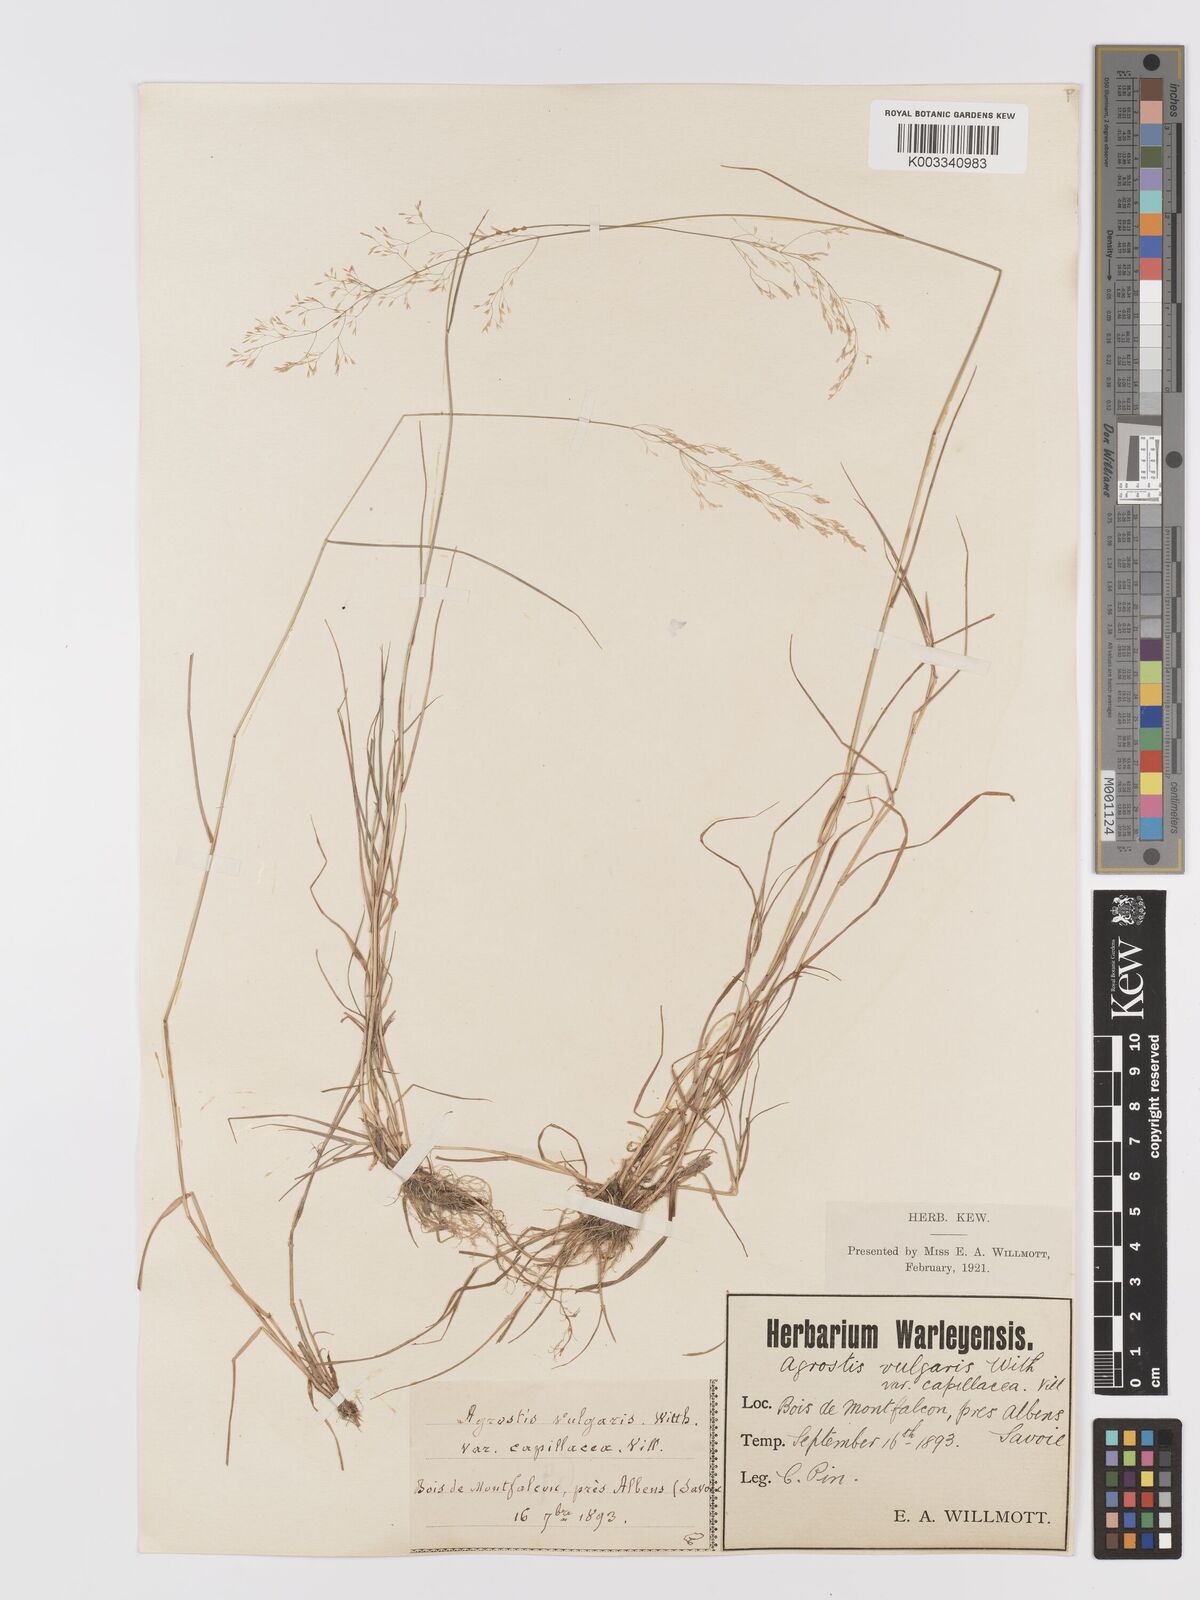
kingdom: Plantae
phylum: Tracheophyta
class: Liliopsida
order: Poales
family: Poaceae
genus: Agrostis
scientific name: Agrostis capillaris
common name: Colonial bentgrass
